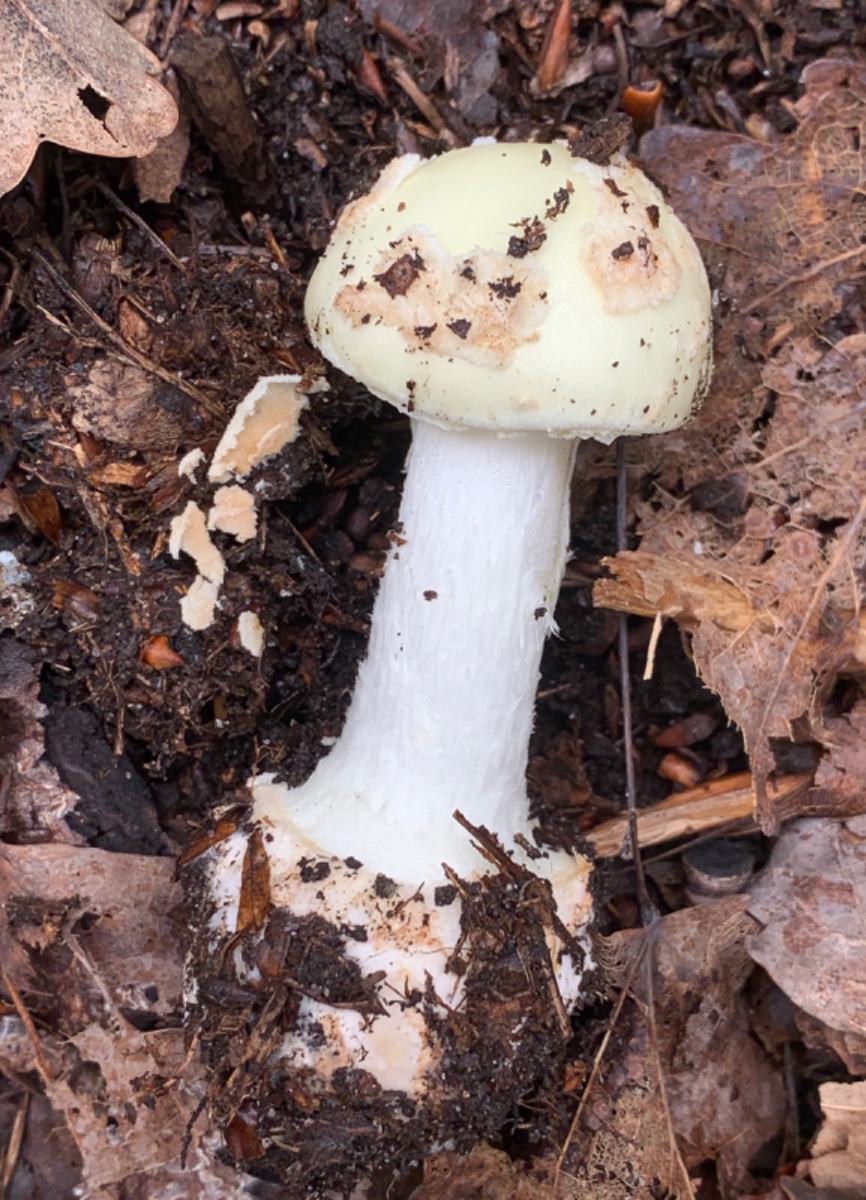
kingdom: Fungi
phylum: Basidiomycota
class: Agaricomycetes
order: Agaricales
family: Amanitaceae
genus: Amanita
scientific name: Amanita citrina
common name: kugleknoldet fluesvamp
